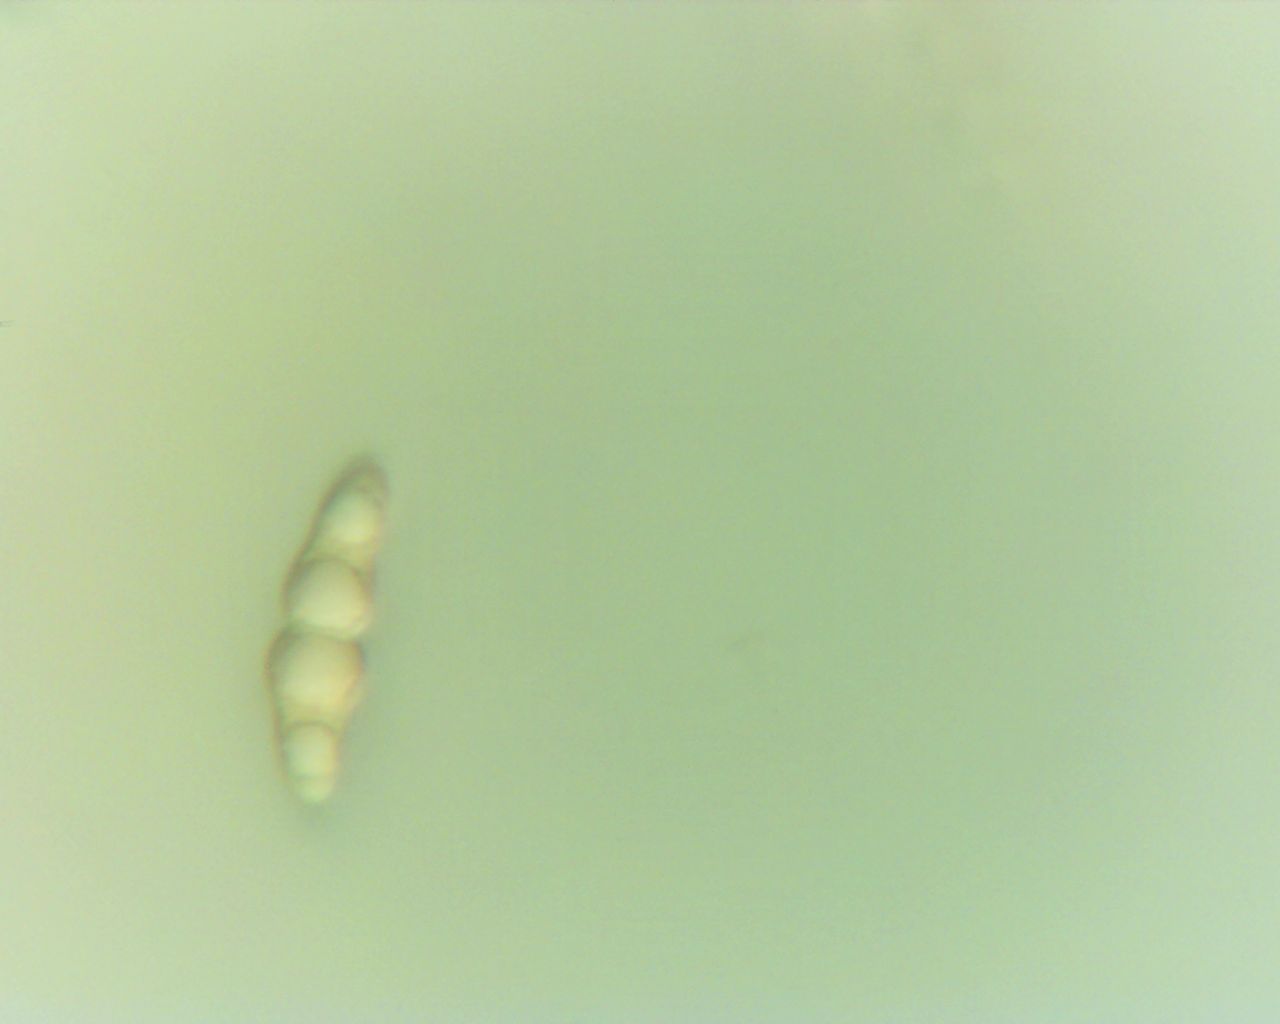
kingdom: Fungi
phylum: Ascomycota
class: Dothideomycetes
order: Pleosporales
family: Melanommataceae
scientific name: Melanommataceae
